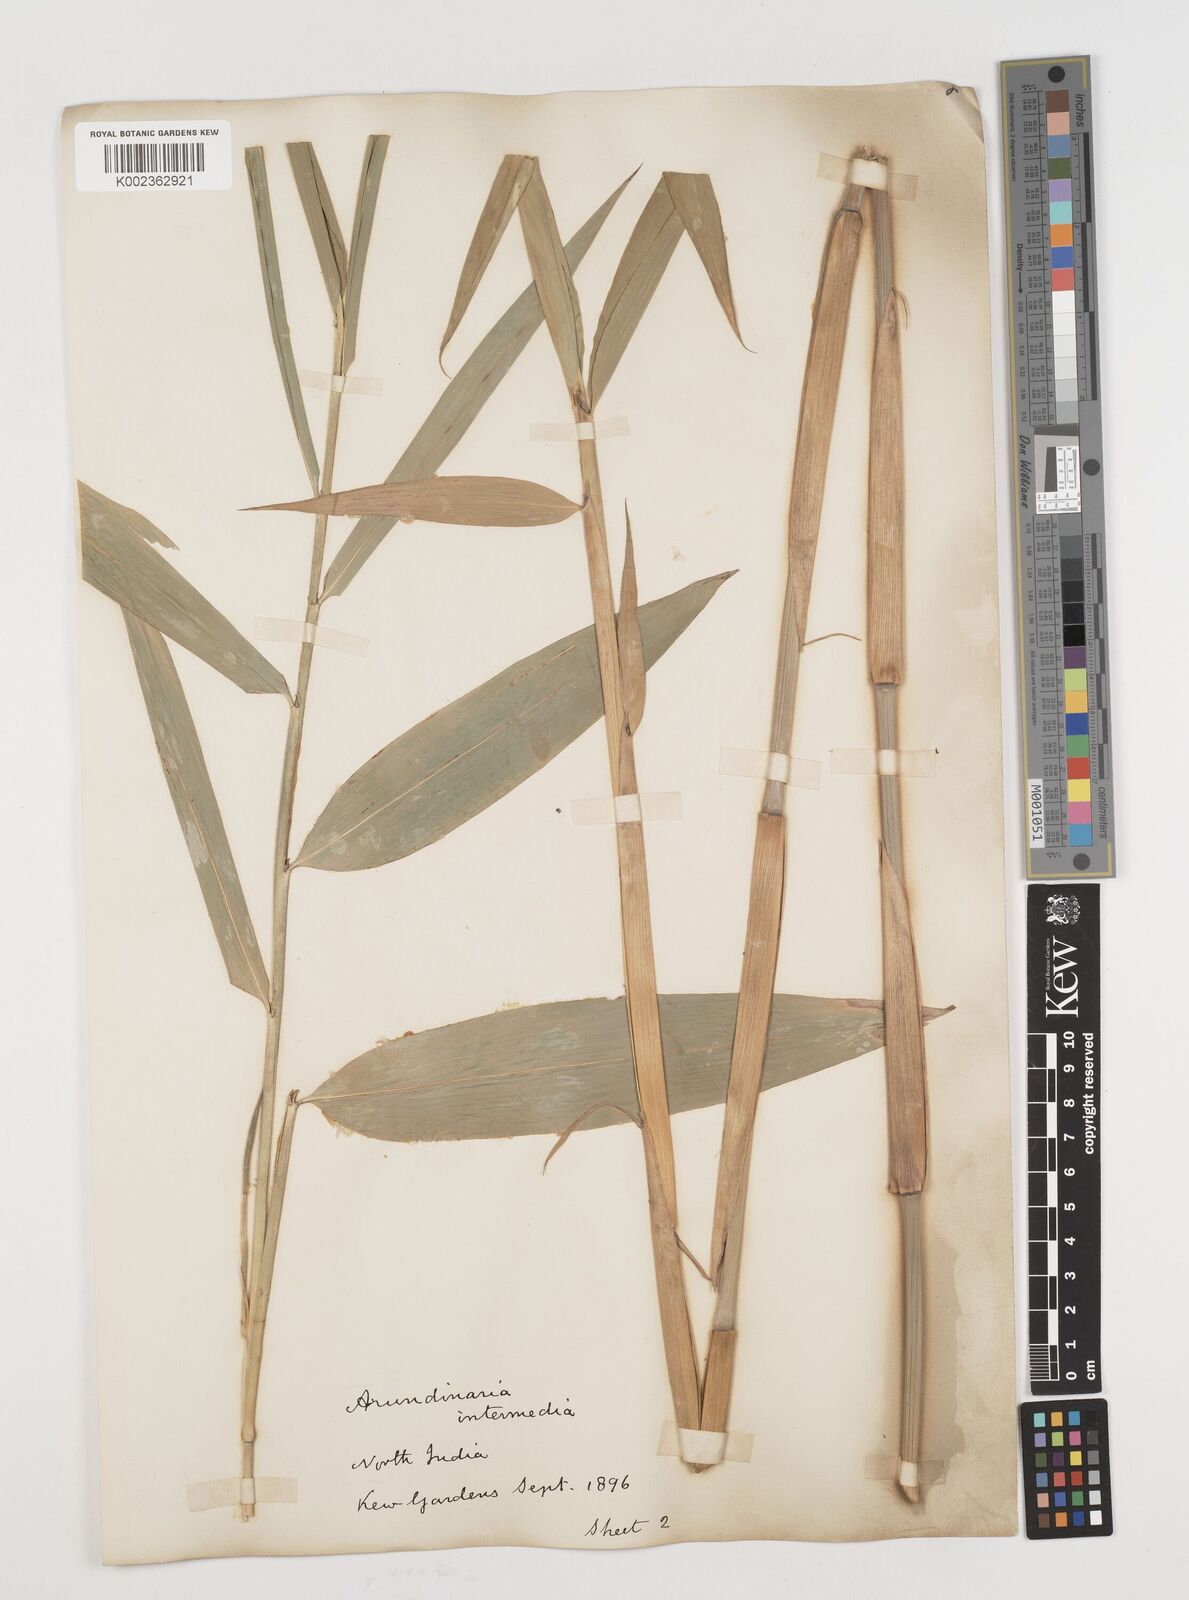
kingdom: Plantae
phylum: Tracheophyta
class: Liliopsida
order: Poales
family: Poaceae
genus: Drepanostachyum
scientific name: Drepanostachyum intermedium
